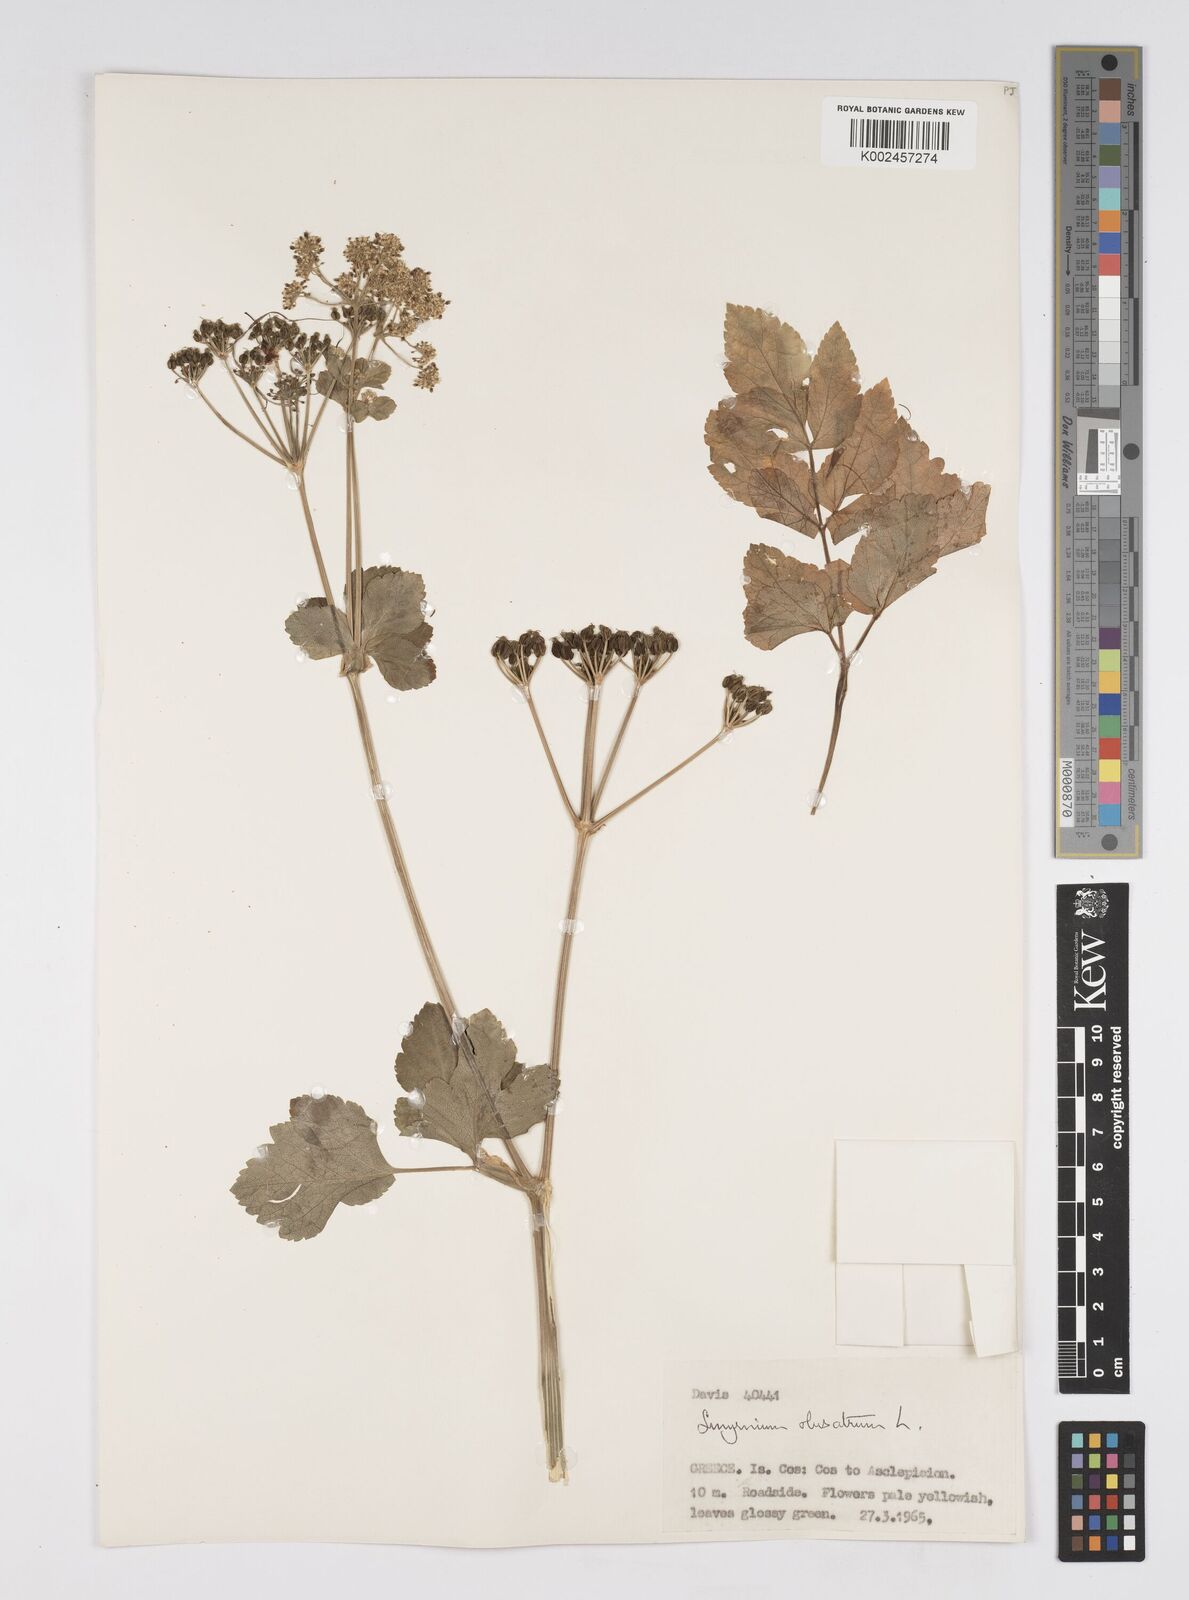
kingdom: Plantae
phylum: Tracheophyta
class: Magnoliopsida
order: Apiales
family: Apiaceae
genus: Smyrnium
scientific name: Smyrnium olusatrum
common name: Alexanders
